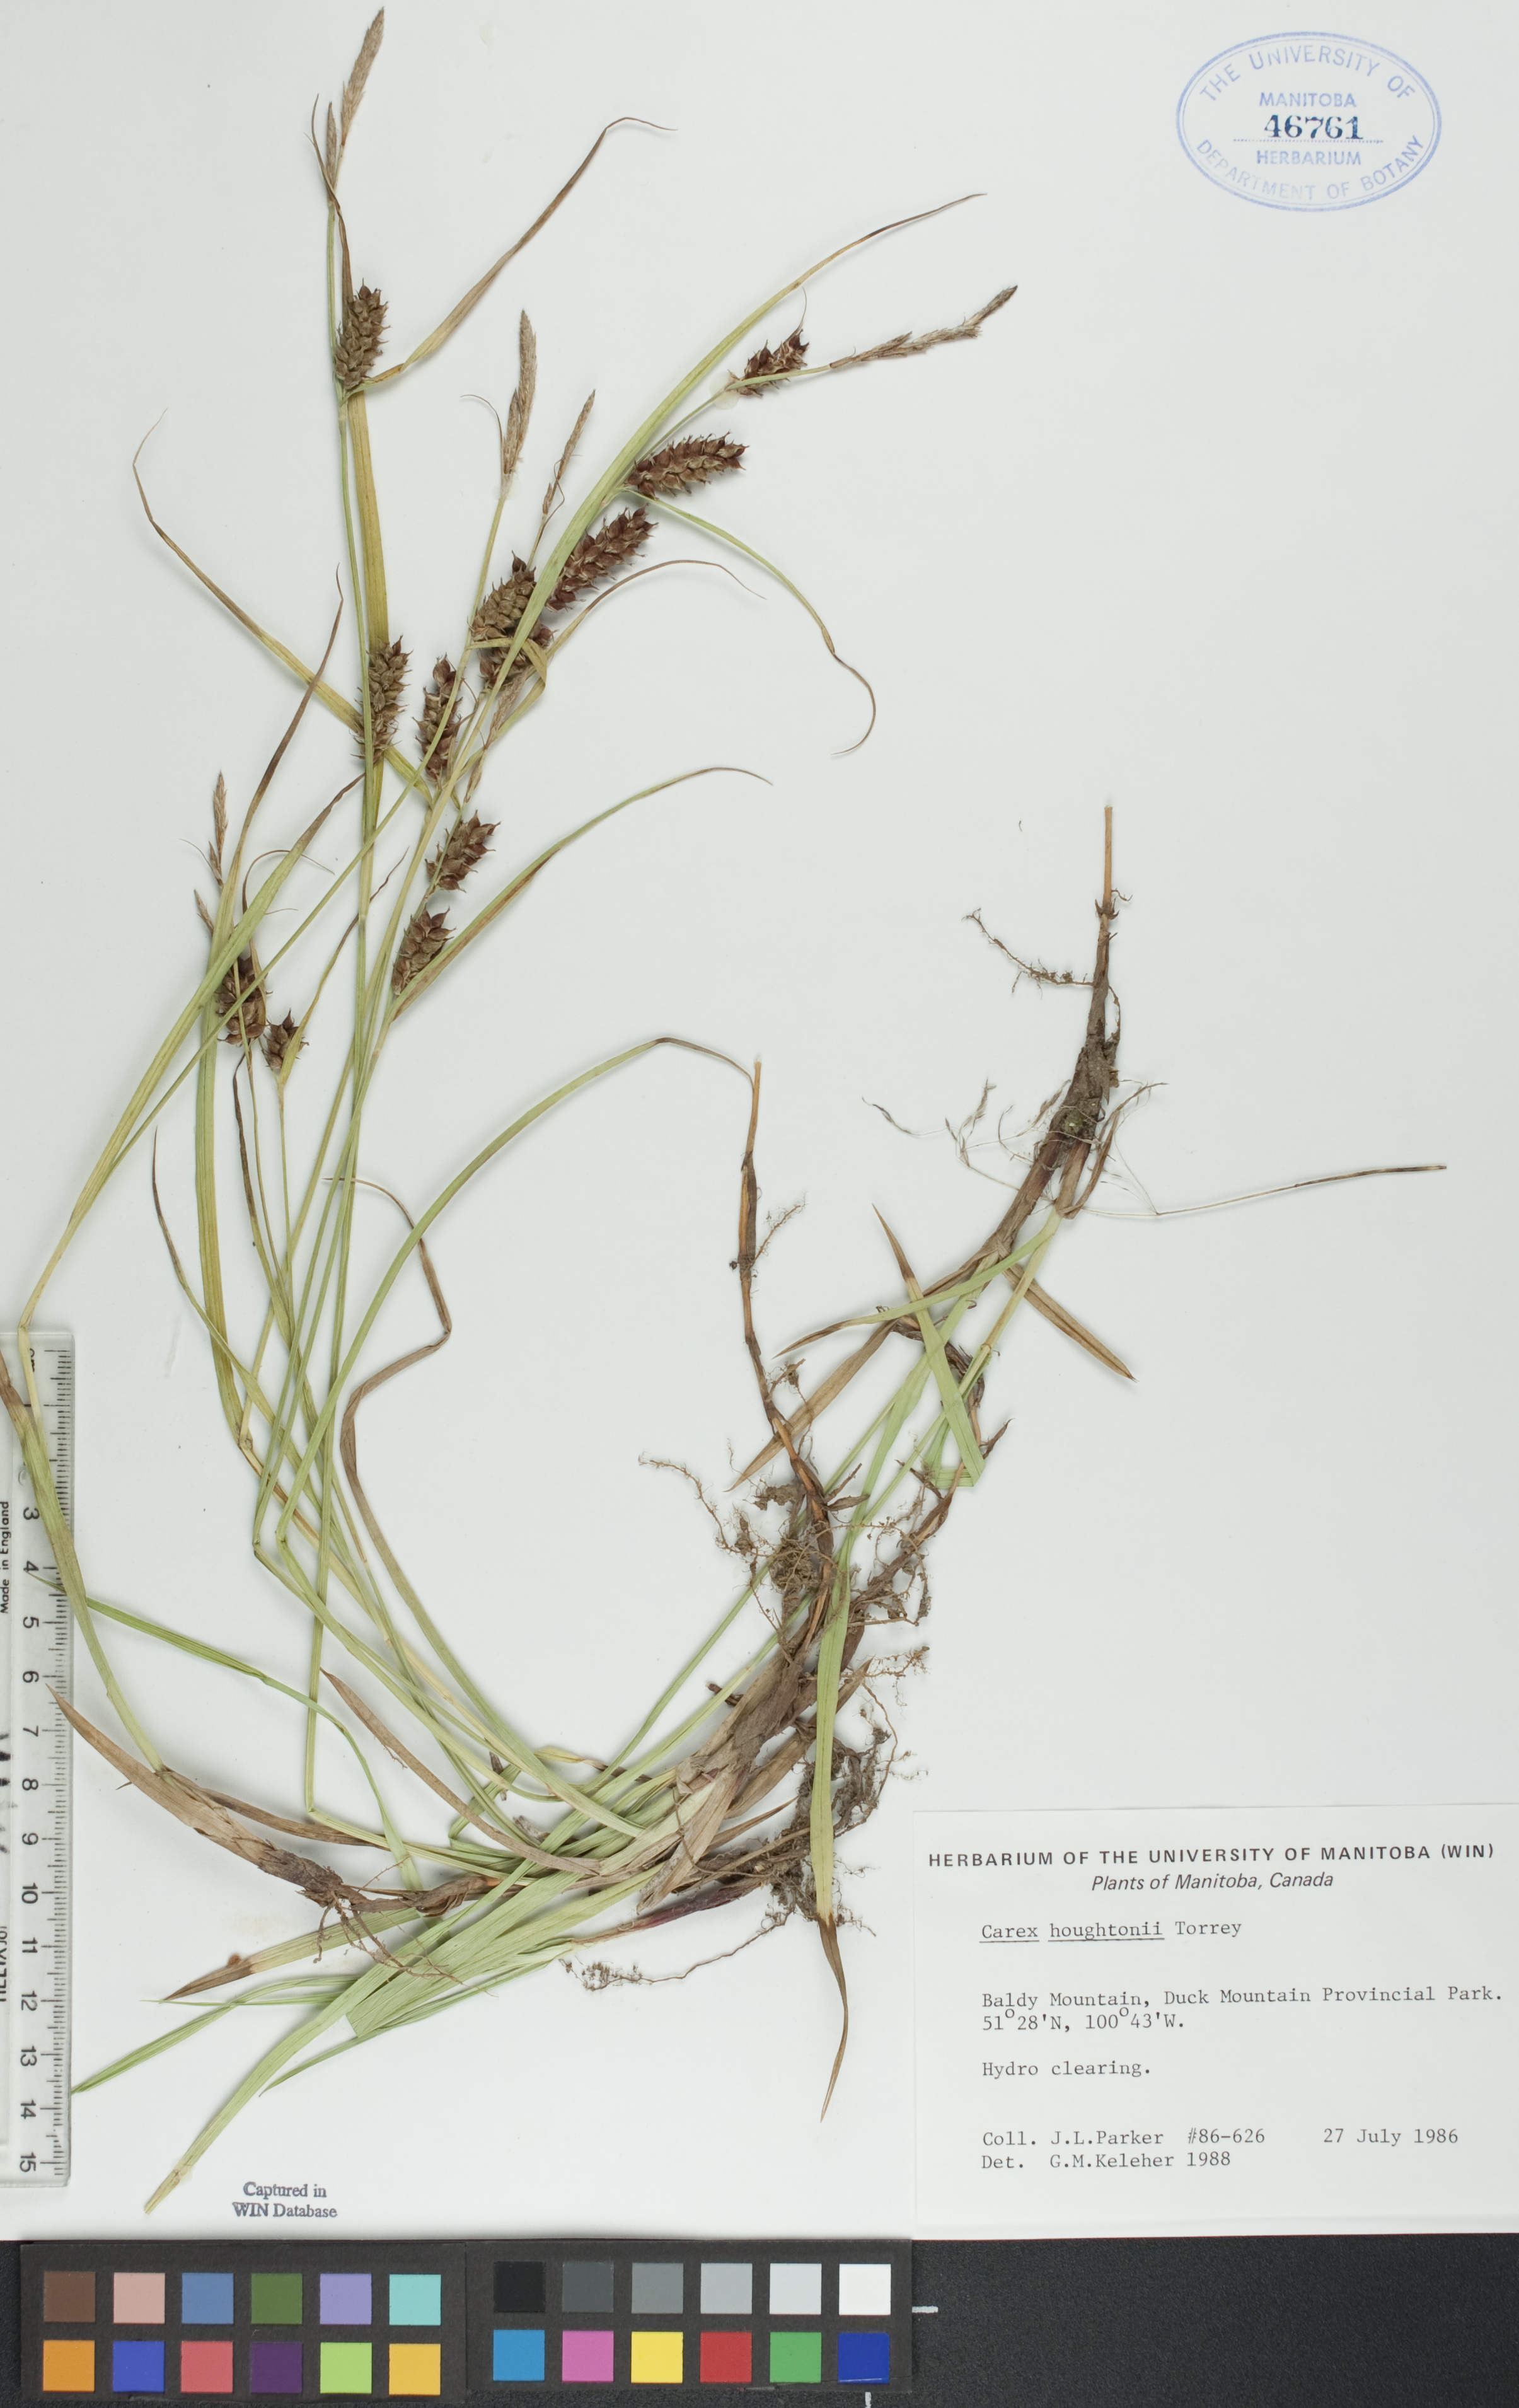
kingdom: Plantae
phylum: Tracheophyta
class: Liliopsida
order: Poales
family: Cyperaceae
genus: Carex
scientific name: Carex houghtoniana
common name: Houghton's sedge
